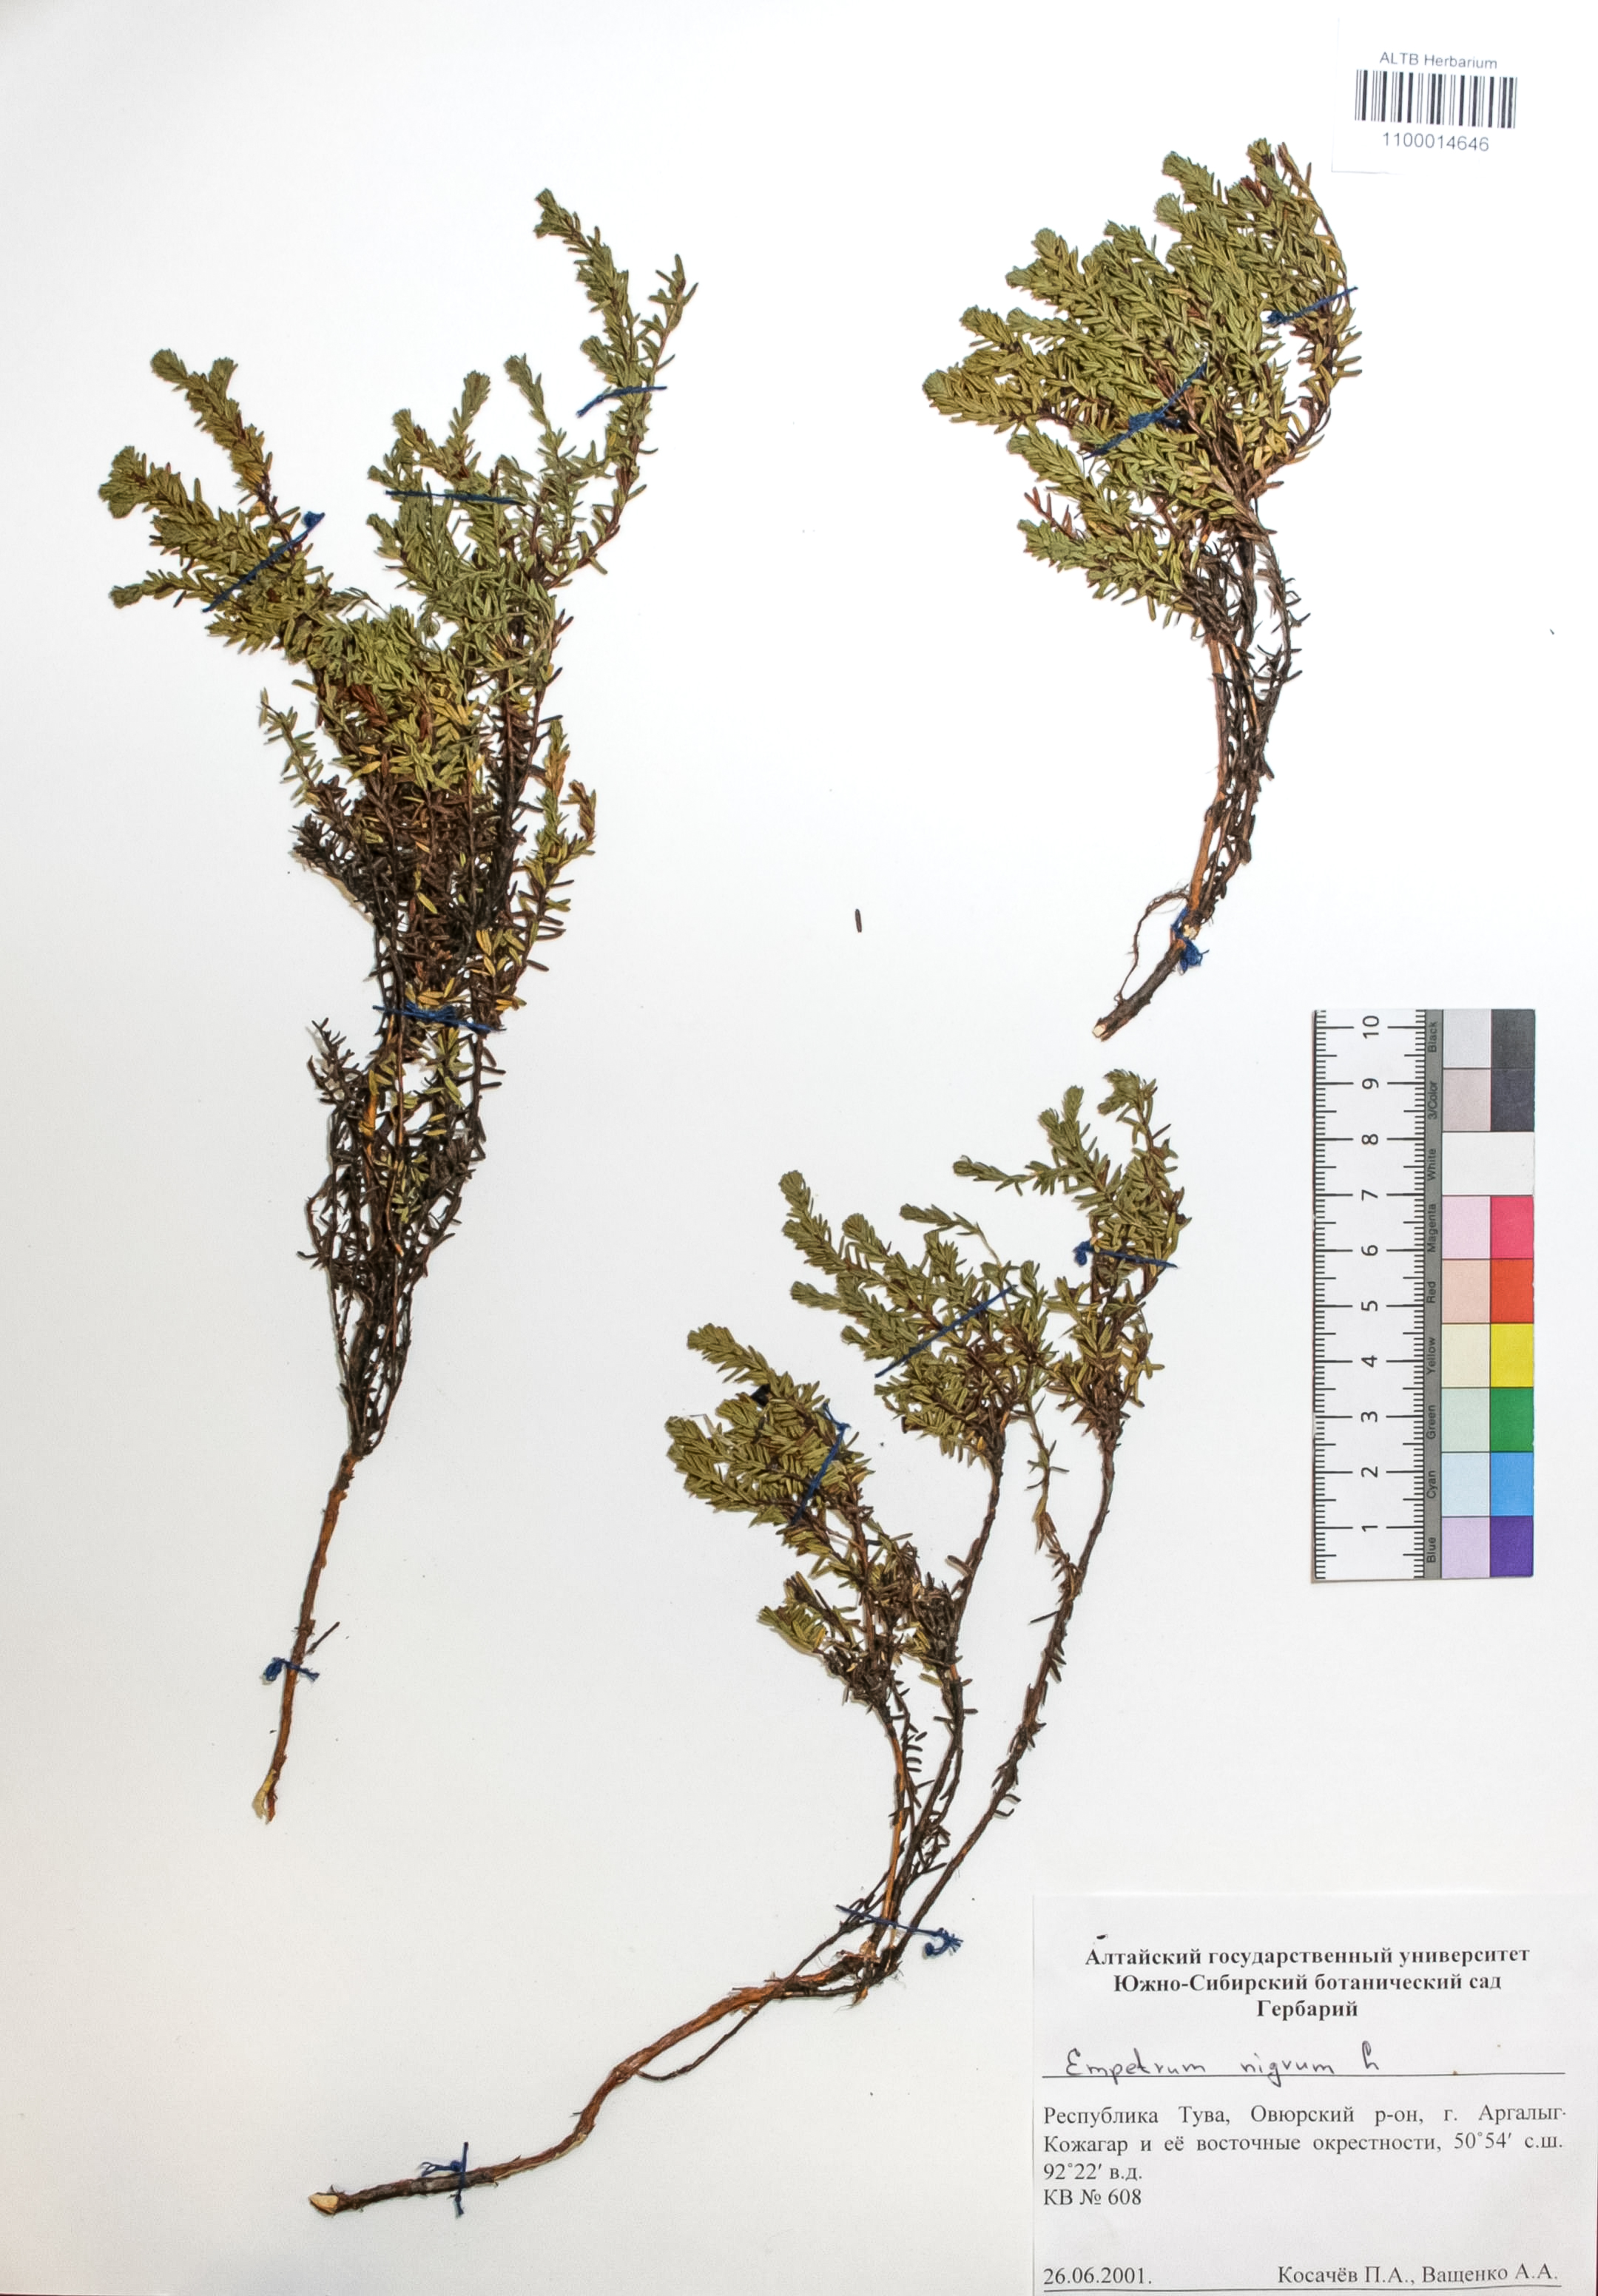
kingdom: Plantae
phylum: Tracheophyta
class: Magnoliopsida
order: Ericales
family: Ericaceae
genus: Empetrum
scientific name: Empetrum nigrum
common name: Black crowberry
